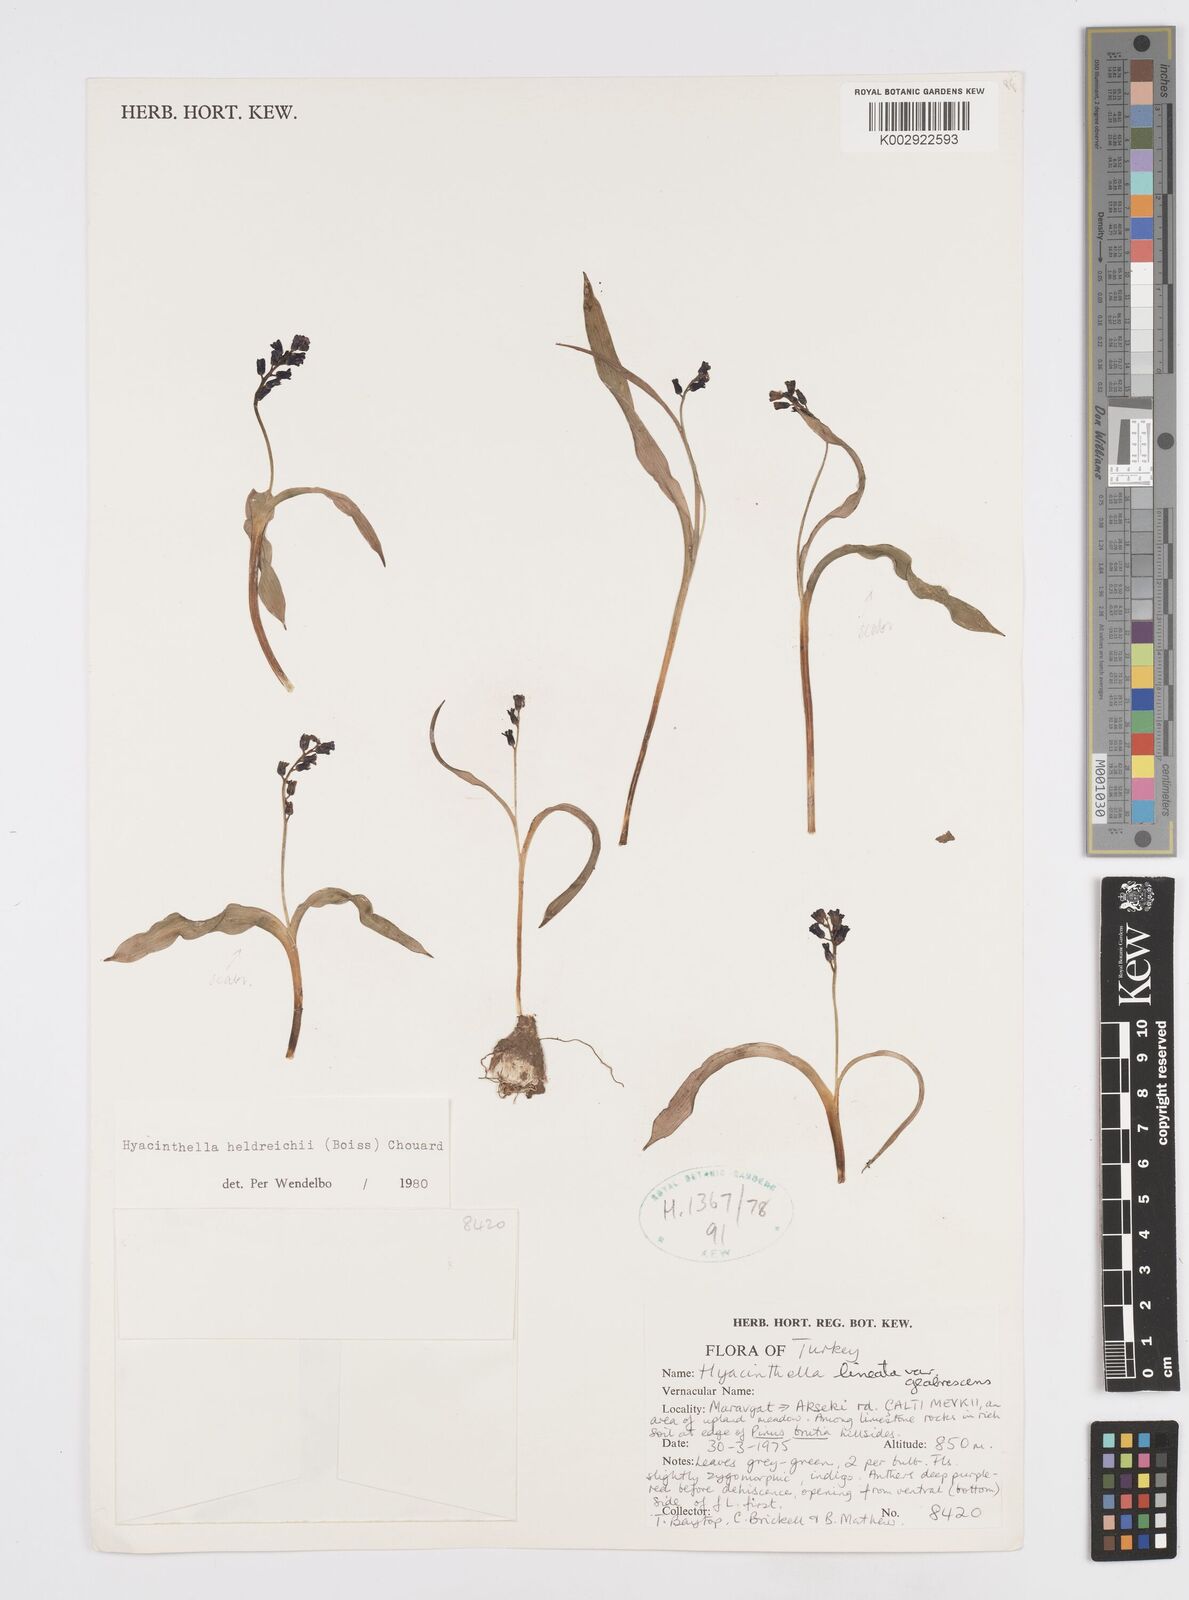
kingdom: Plantae
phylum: Tracheophyta
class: Liliopsida
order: Asparagales
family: Asparagaceae
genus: Hyacinthella
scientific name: Hyacinthella heldreichii
